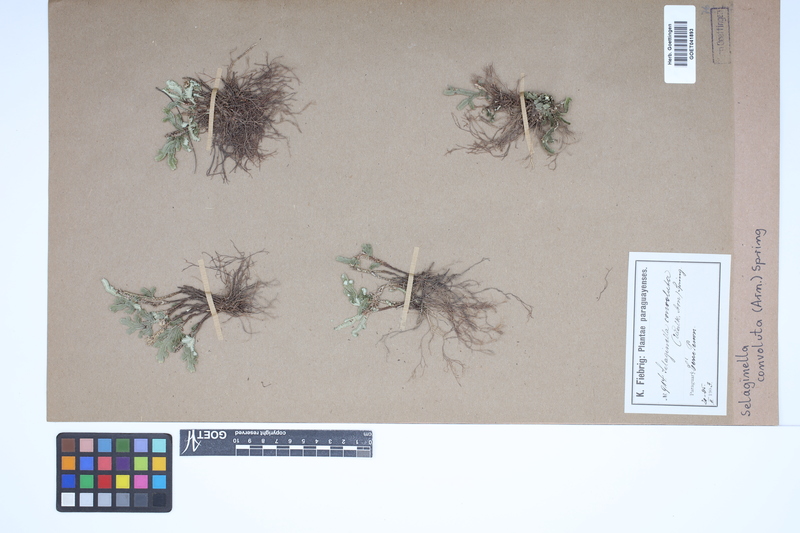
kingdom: Plantae
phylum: Tracheophyta
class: Lycopodiopsida
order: Selaginellales
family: Selaginellaceae
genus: Selaginella
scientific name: Selaginella convoluta
